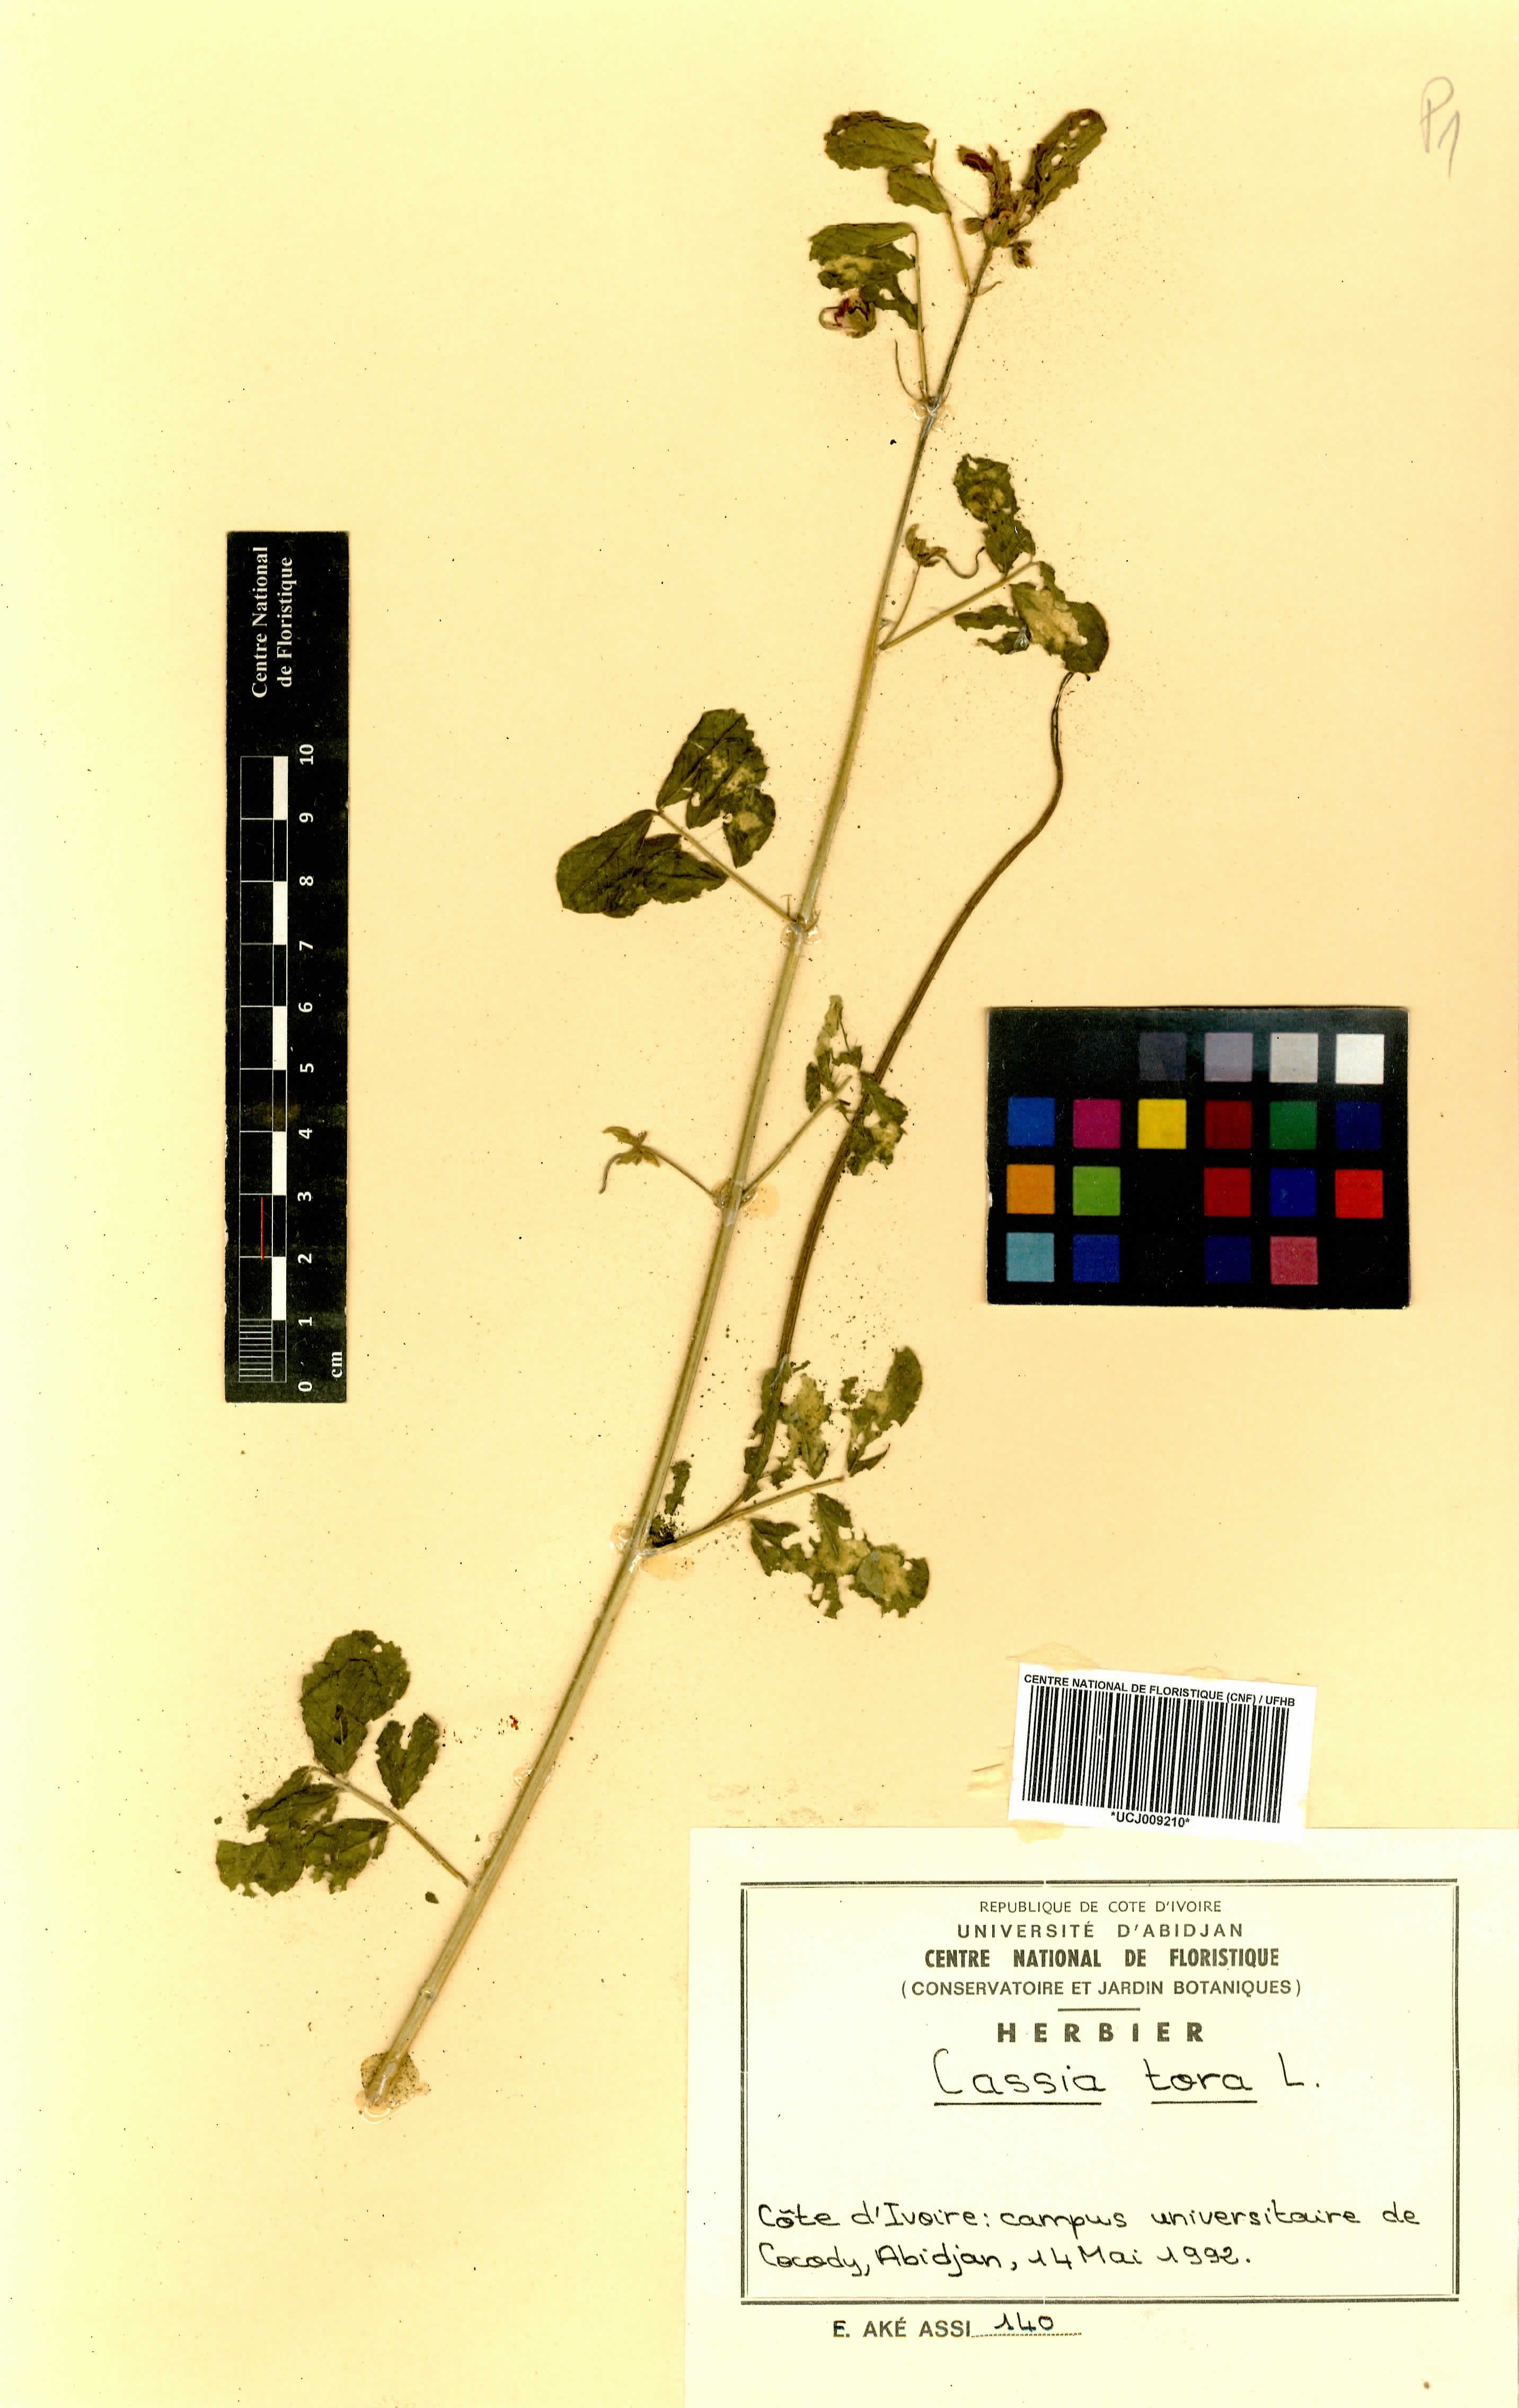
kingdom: Plantae
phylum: Tracheophyta
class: Magnoliopsida
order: Fabales
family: Fabaceae
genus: Senna
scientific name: Senna tora
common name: Sickle senna
